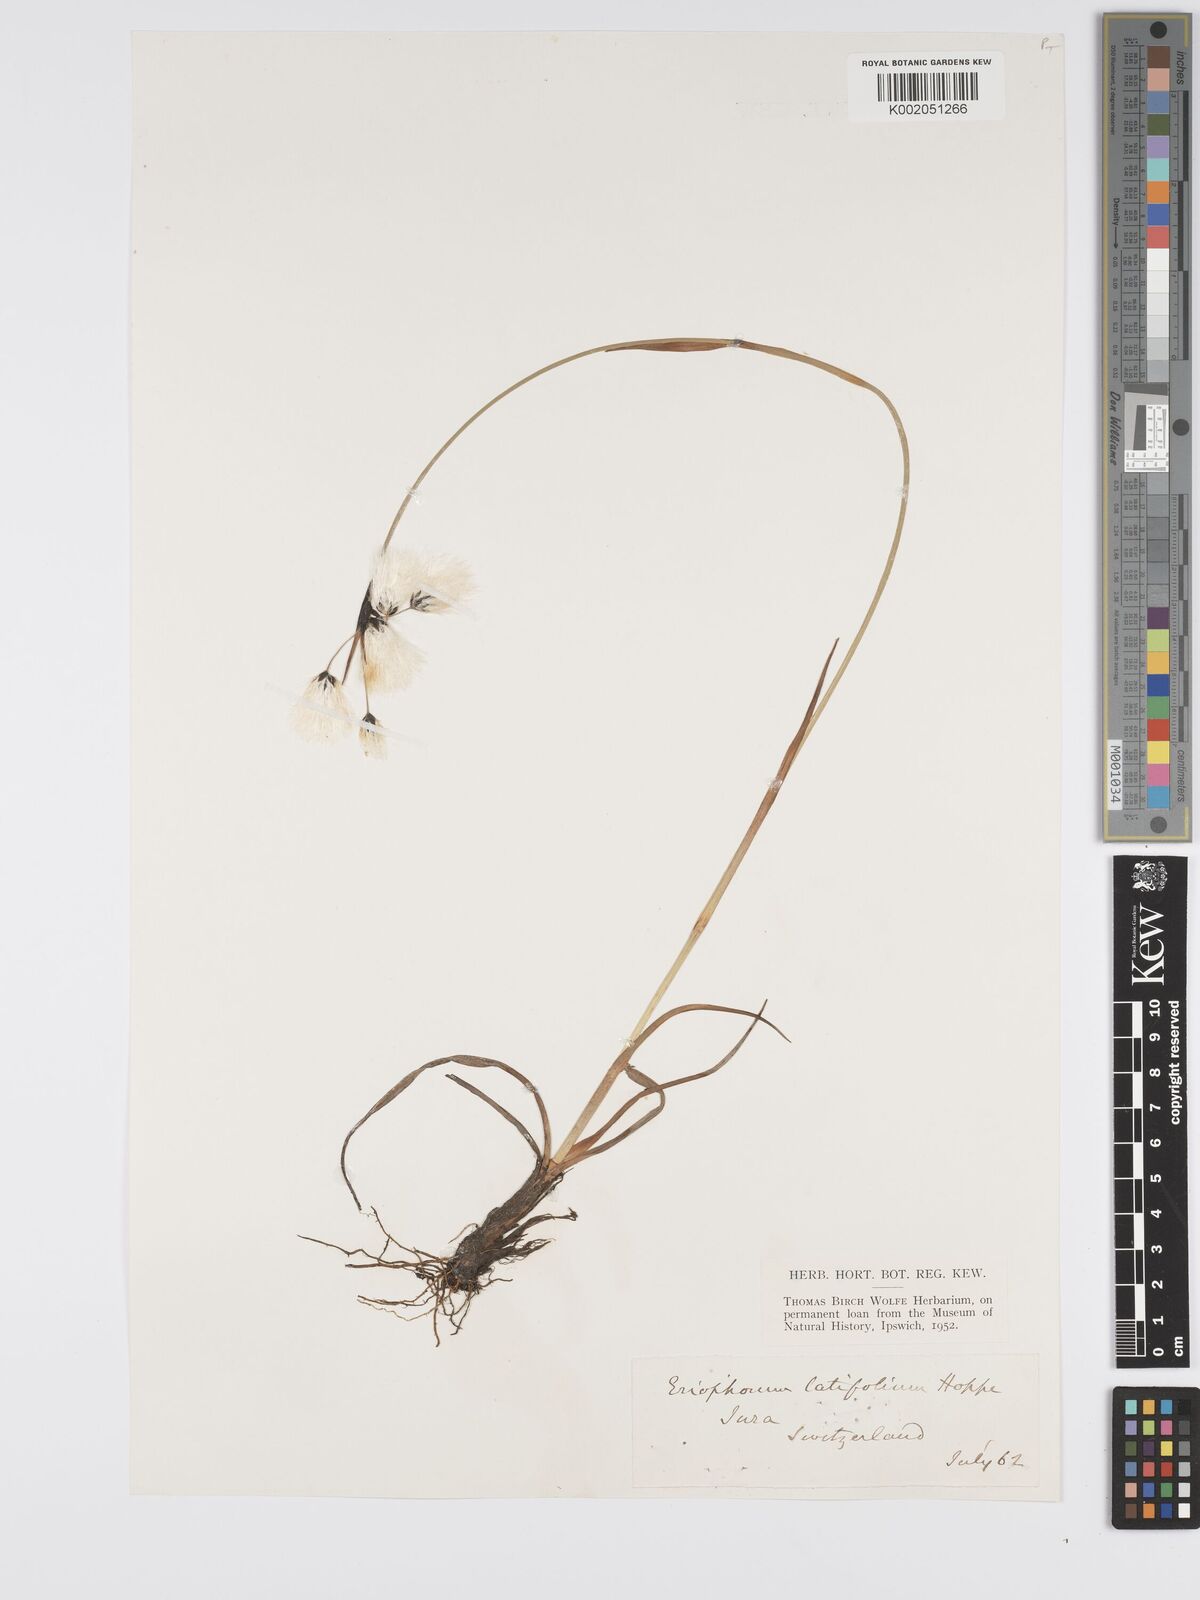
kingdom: Plantae
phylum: Tracheophyta
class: Liliopsida
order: Poales
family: Cyperaceae
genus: Eriophorum
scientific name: Eriophorum latifolium
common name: Broad-leaved cottongrass
